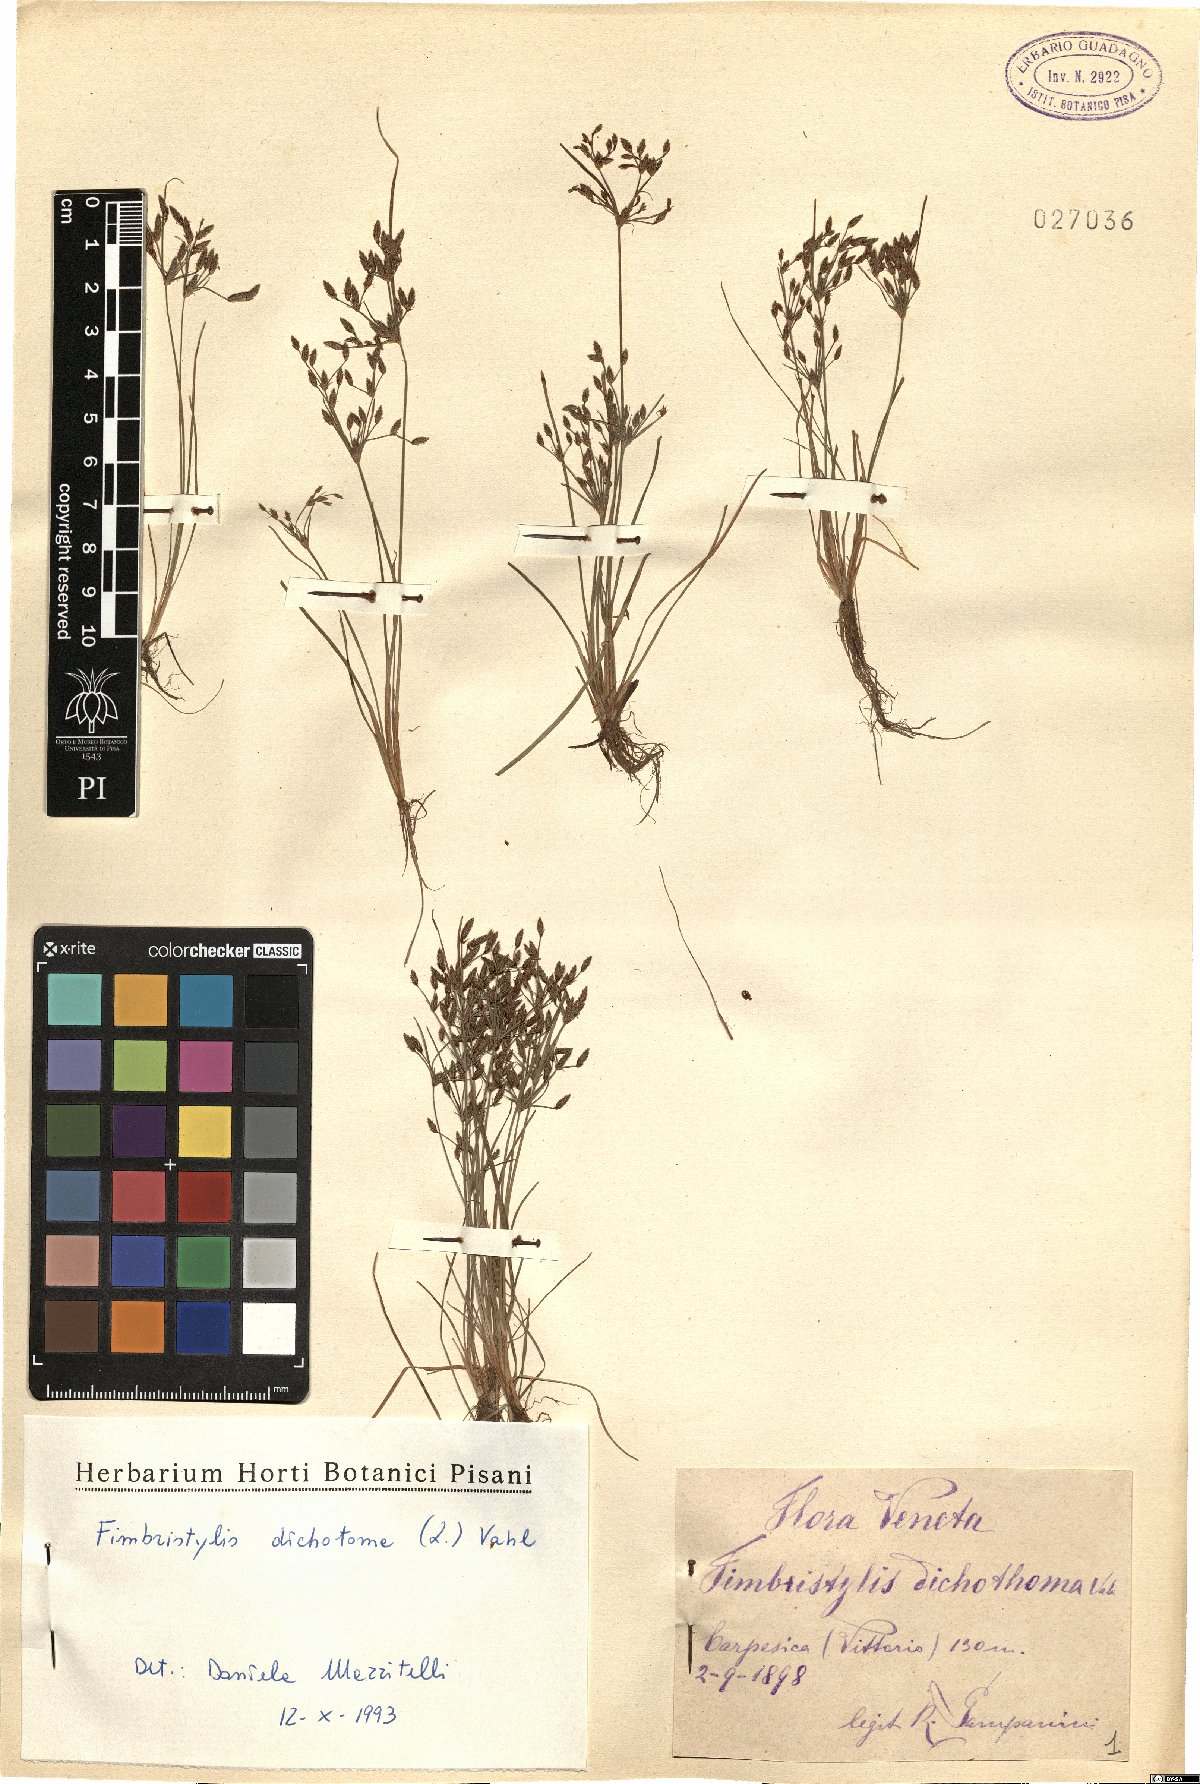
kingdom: Plantae
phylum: Tracheophyta
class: Liliopsida
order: Poales
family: Cyperaceae
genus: Fimbristylis
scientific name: Fimbristylis dichotoma
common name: Forked fimbry
